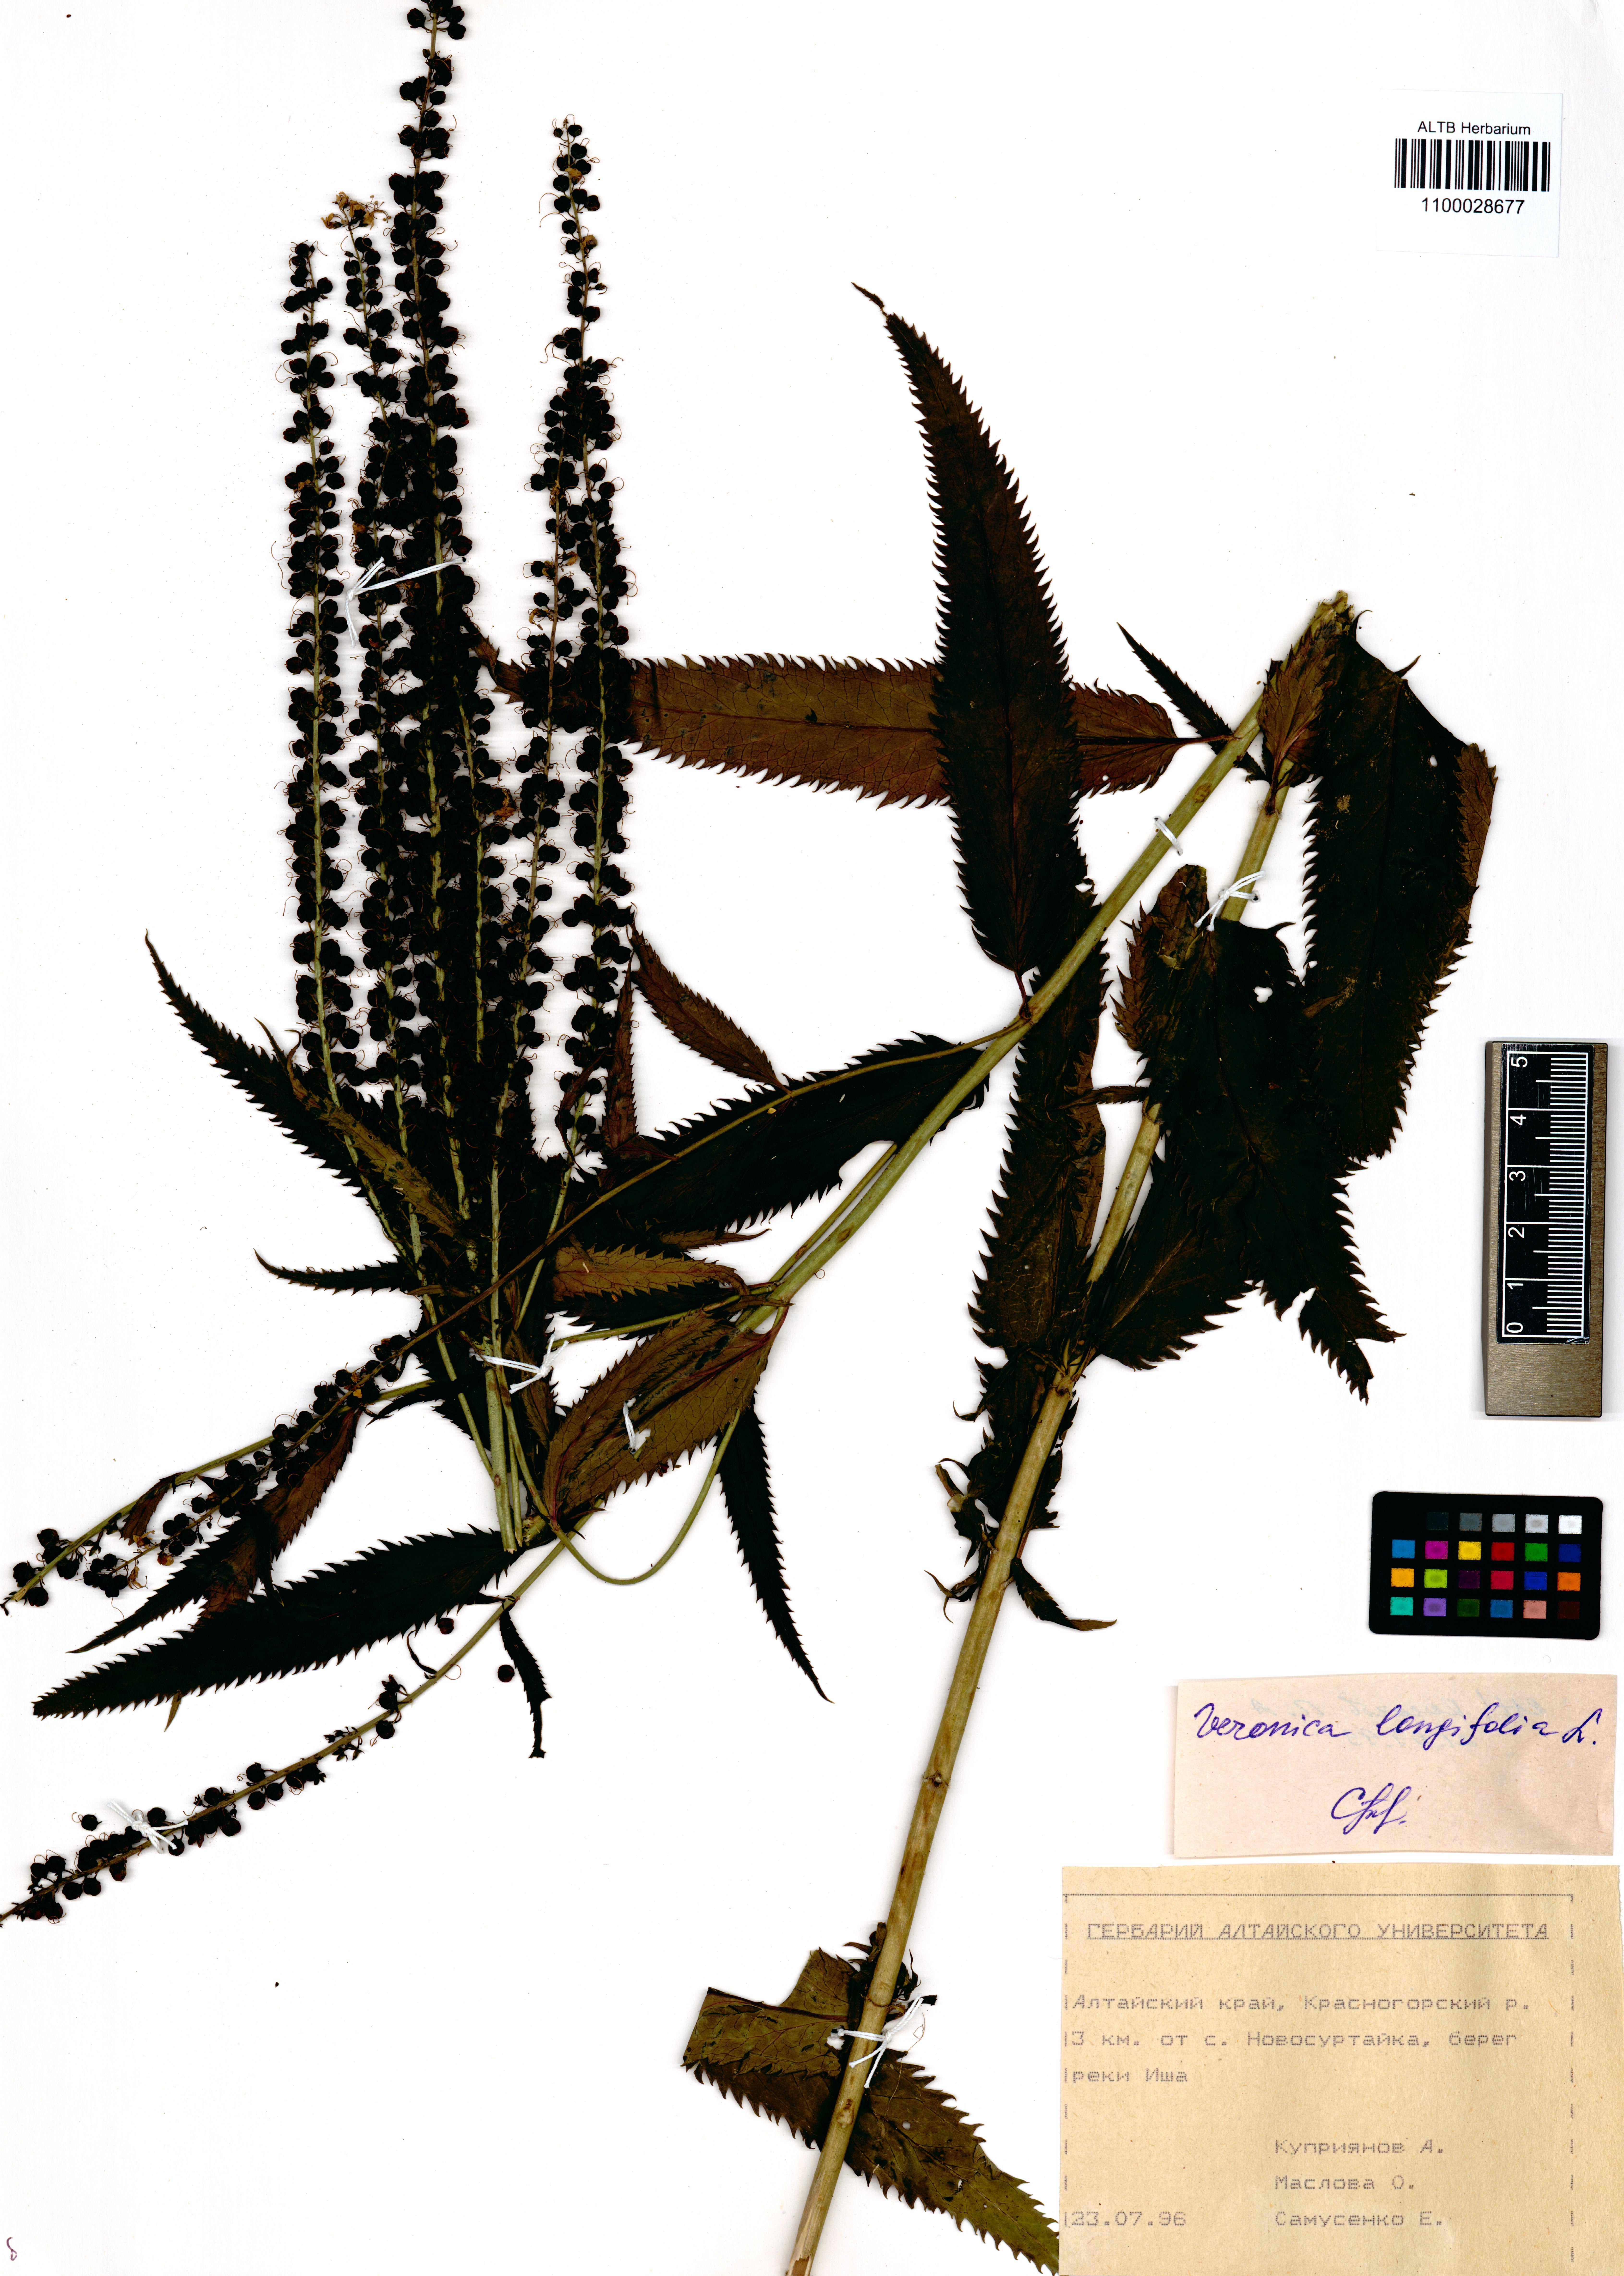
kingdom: Plantae
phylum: Tracheophyta
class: Magnoliopsida
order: Lamiales
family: Plantaginaceae
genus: Veronica
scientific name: Veronica longifolia
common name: Garden speedwell
